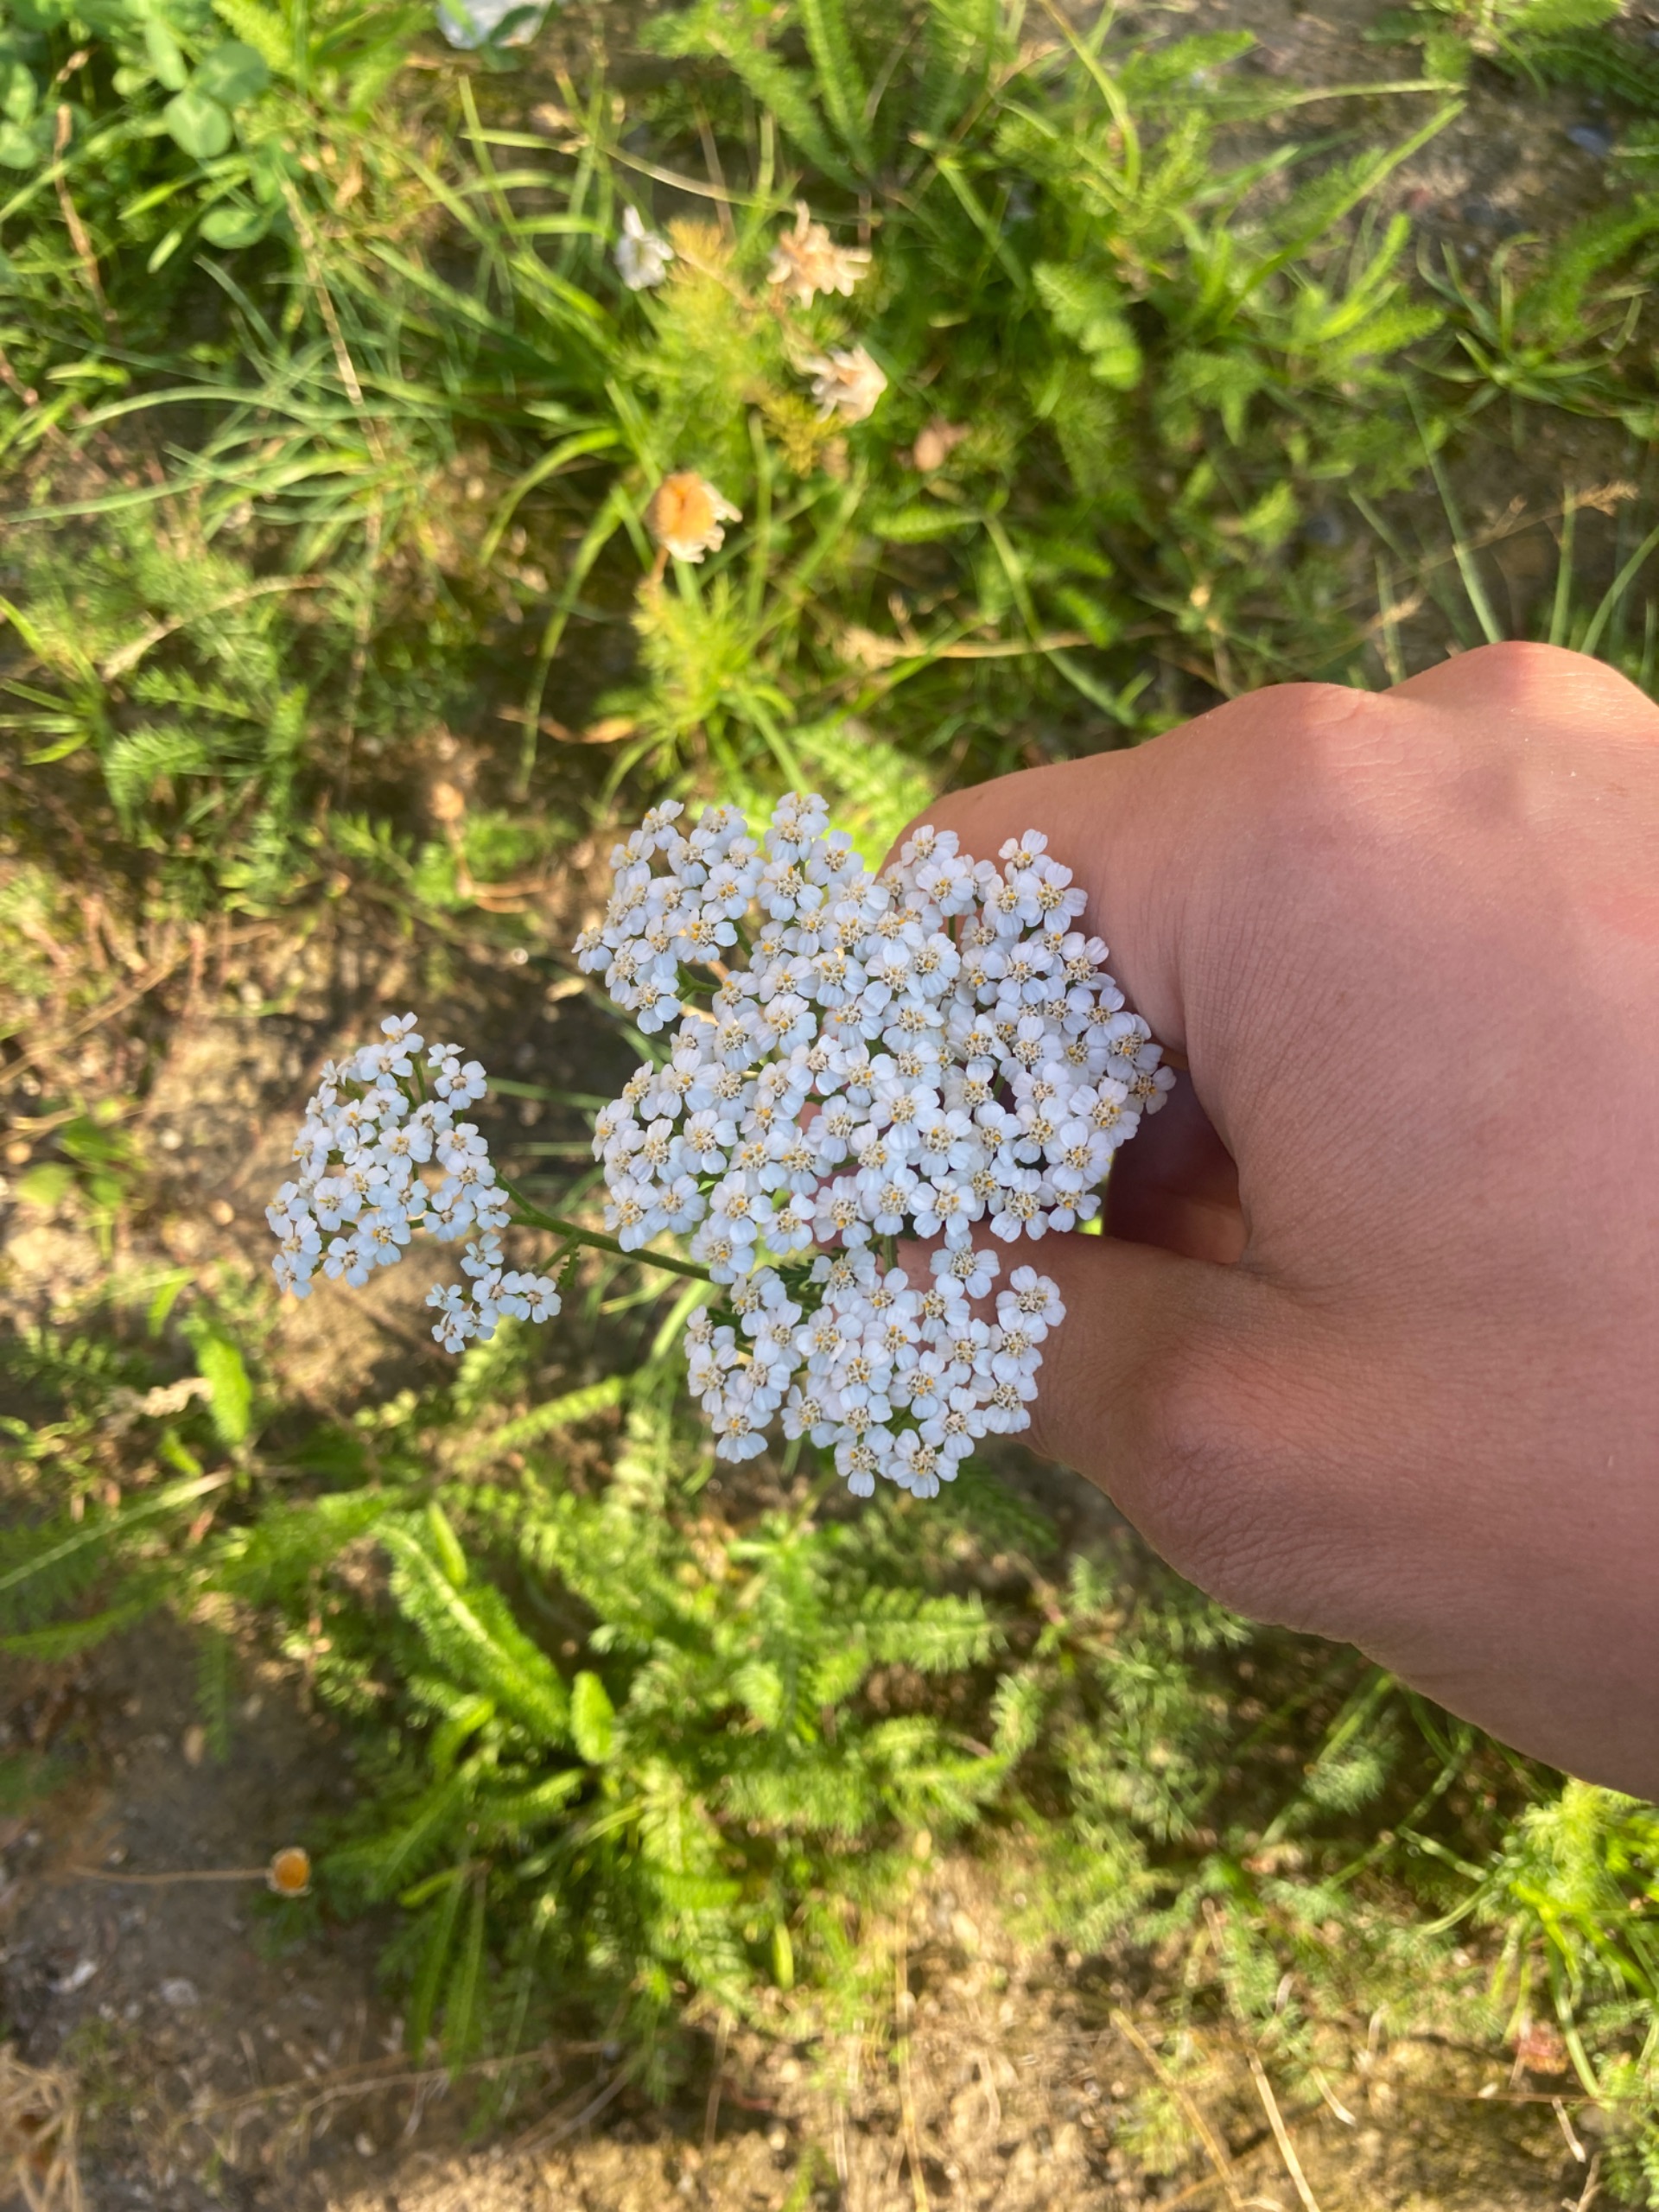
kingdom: Plantae
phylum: Tracheophyta
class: Magnoliopsida
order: Asterales
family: Asteraceae
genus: Achillea
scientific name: Achillea millefolium
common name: Almindelig røllike
